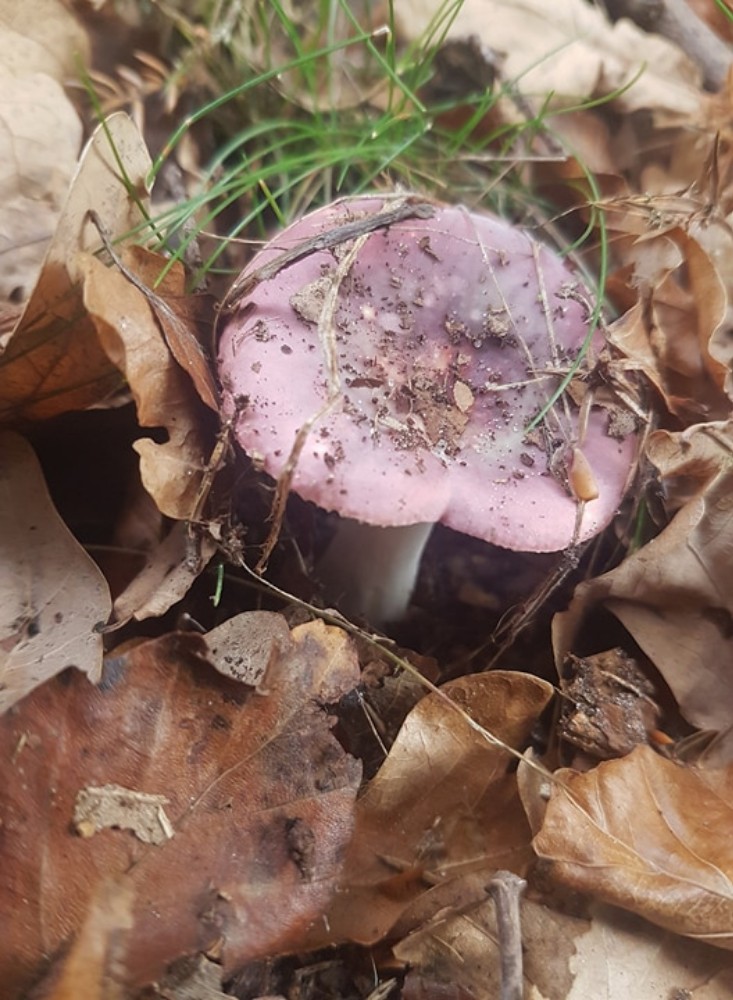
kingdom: Fungi
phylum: Basidiomycota
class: Agaricomycetes
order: Russulales
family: Russulaceae
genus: Russula
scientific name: Russula
